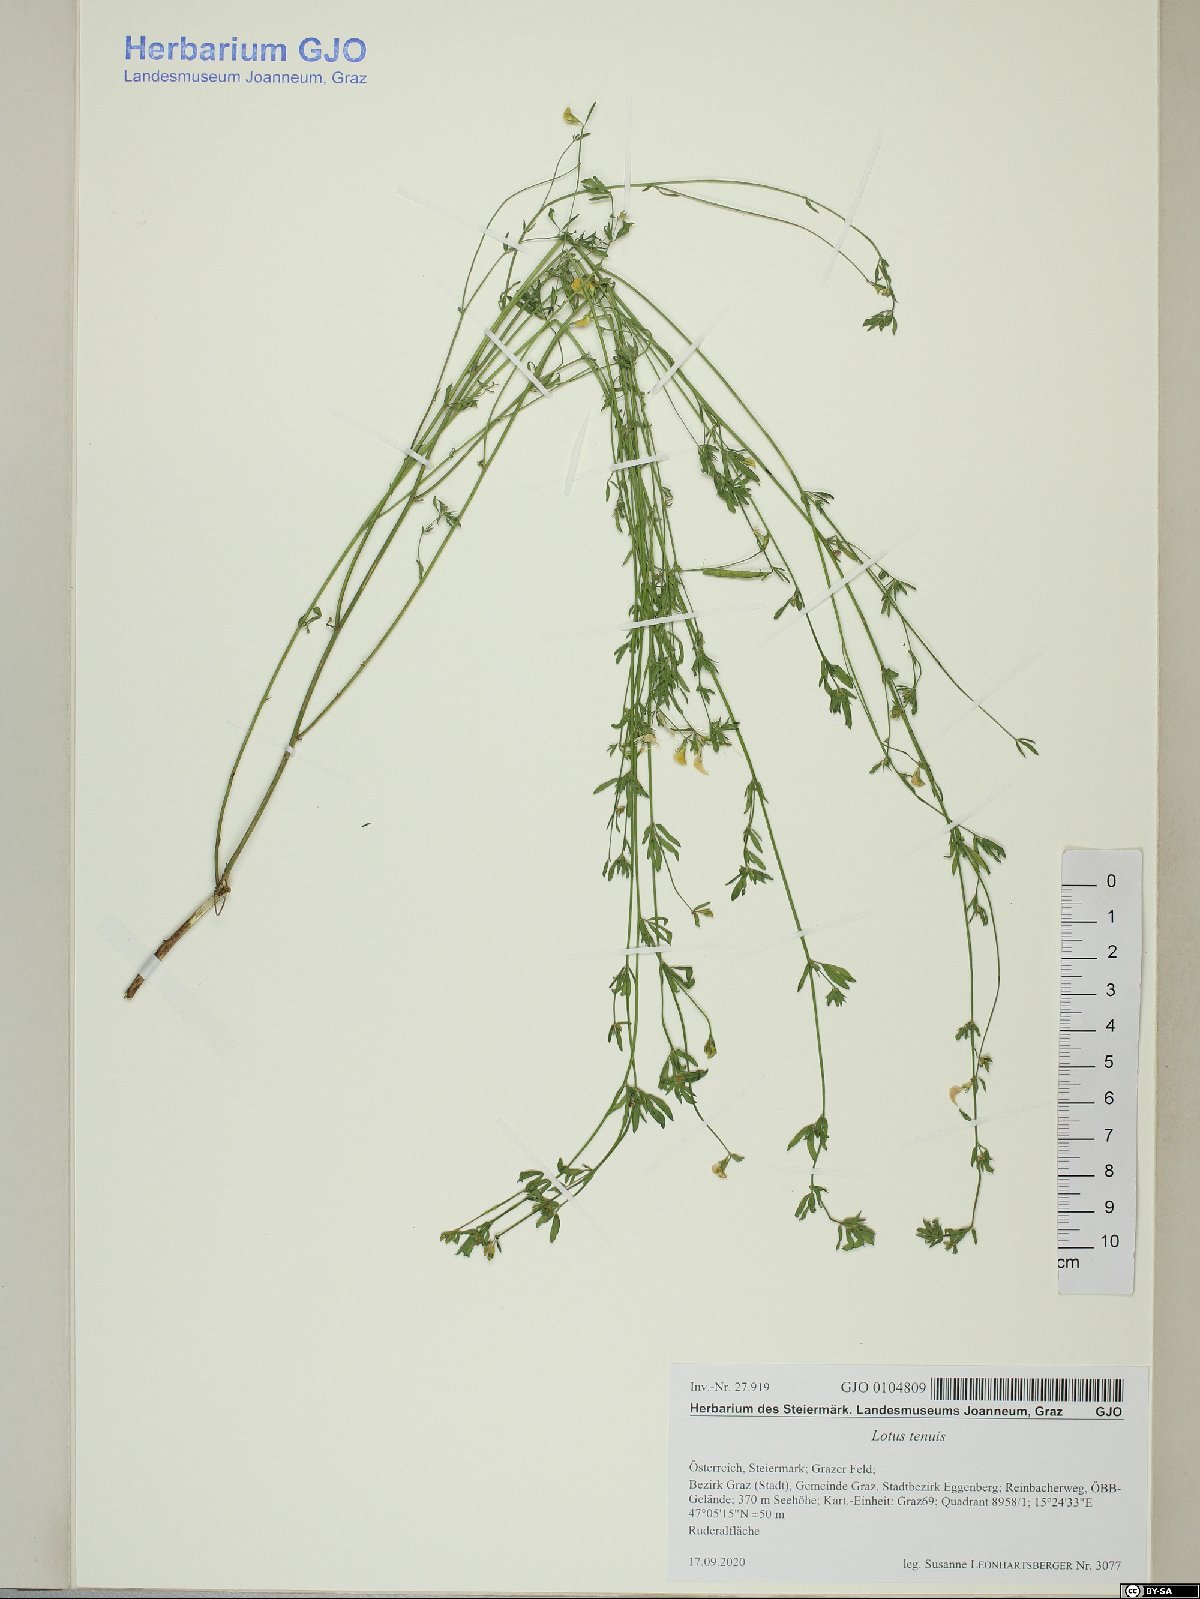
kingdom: Plantae
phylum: Tracheophyta
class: Magnoliopsida
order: Fabales
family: Fabaceae
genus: Lotus
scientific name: Lotus tenuis
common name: Narrow-leaved bird's-foot-trefoil
